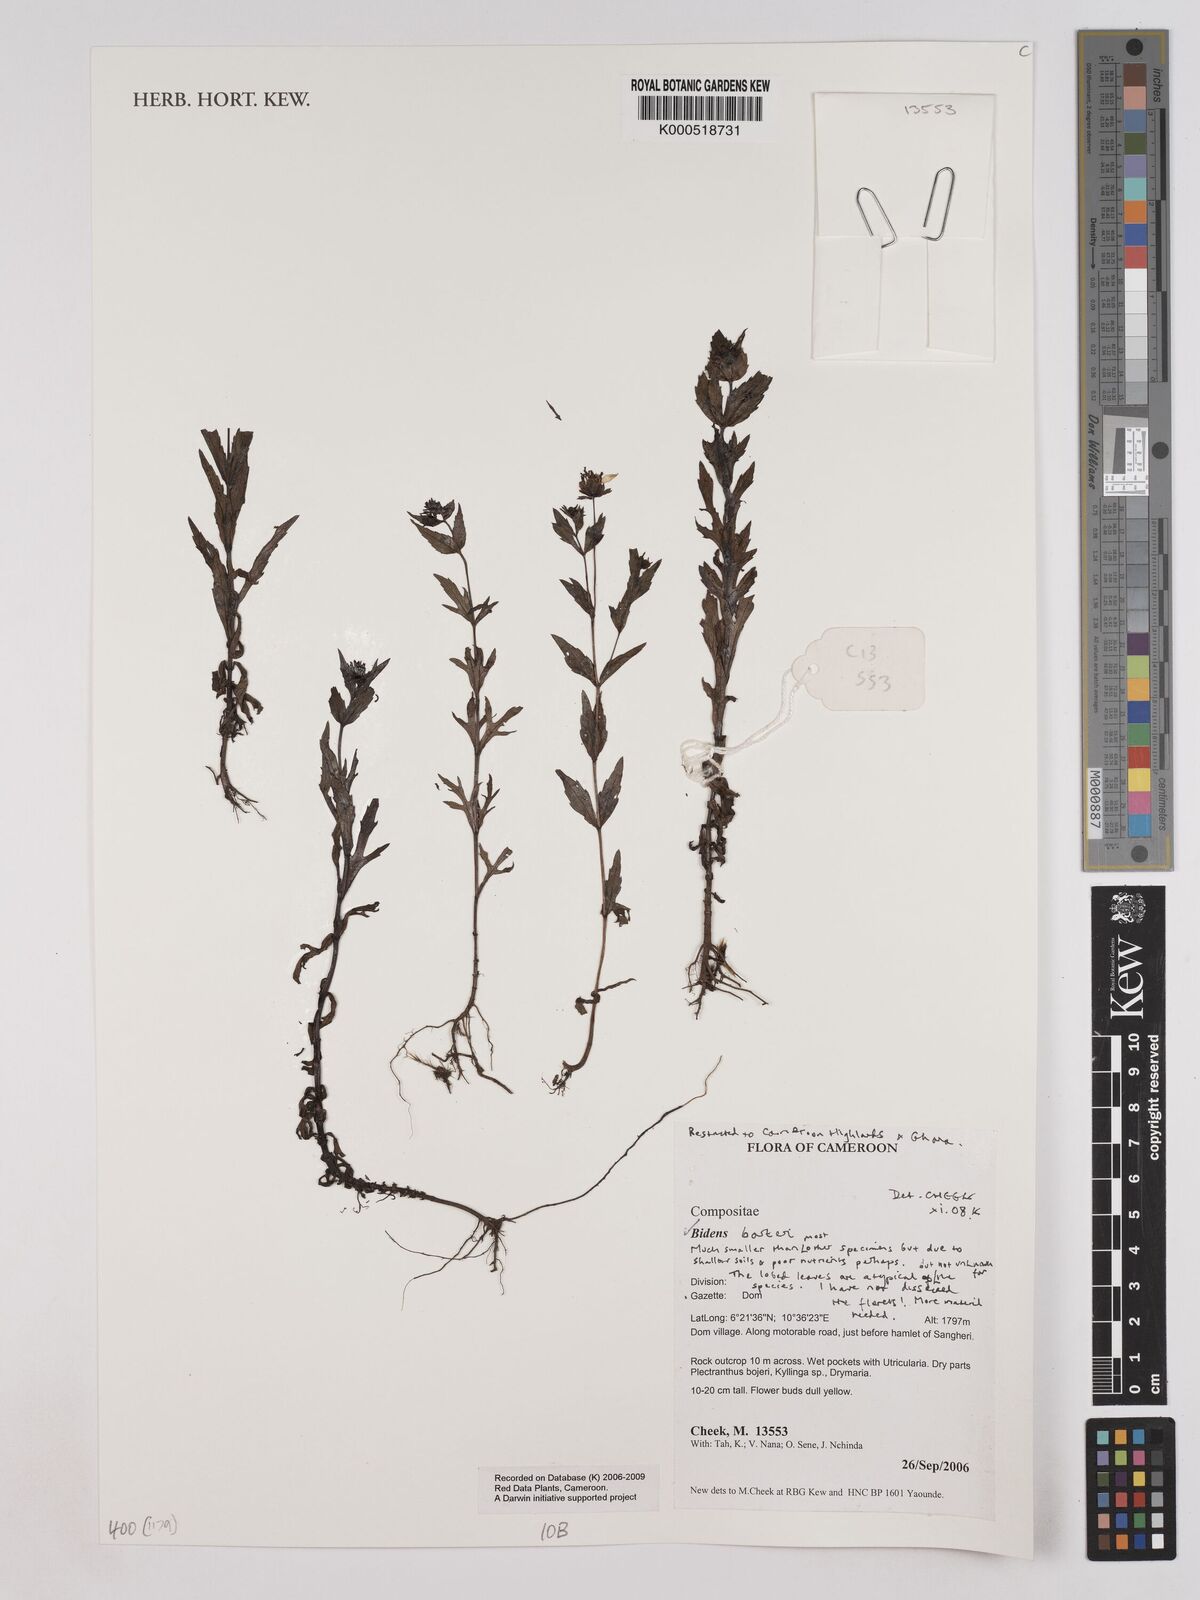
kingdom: Plantae
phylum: Tracheophyta
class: Magnoliopsida
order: Asterales
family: Asteraceae
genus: Bidens
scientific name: Bidens barteri
